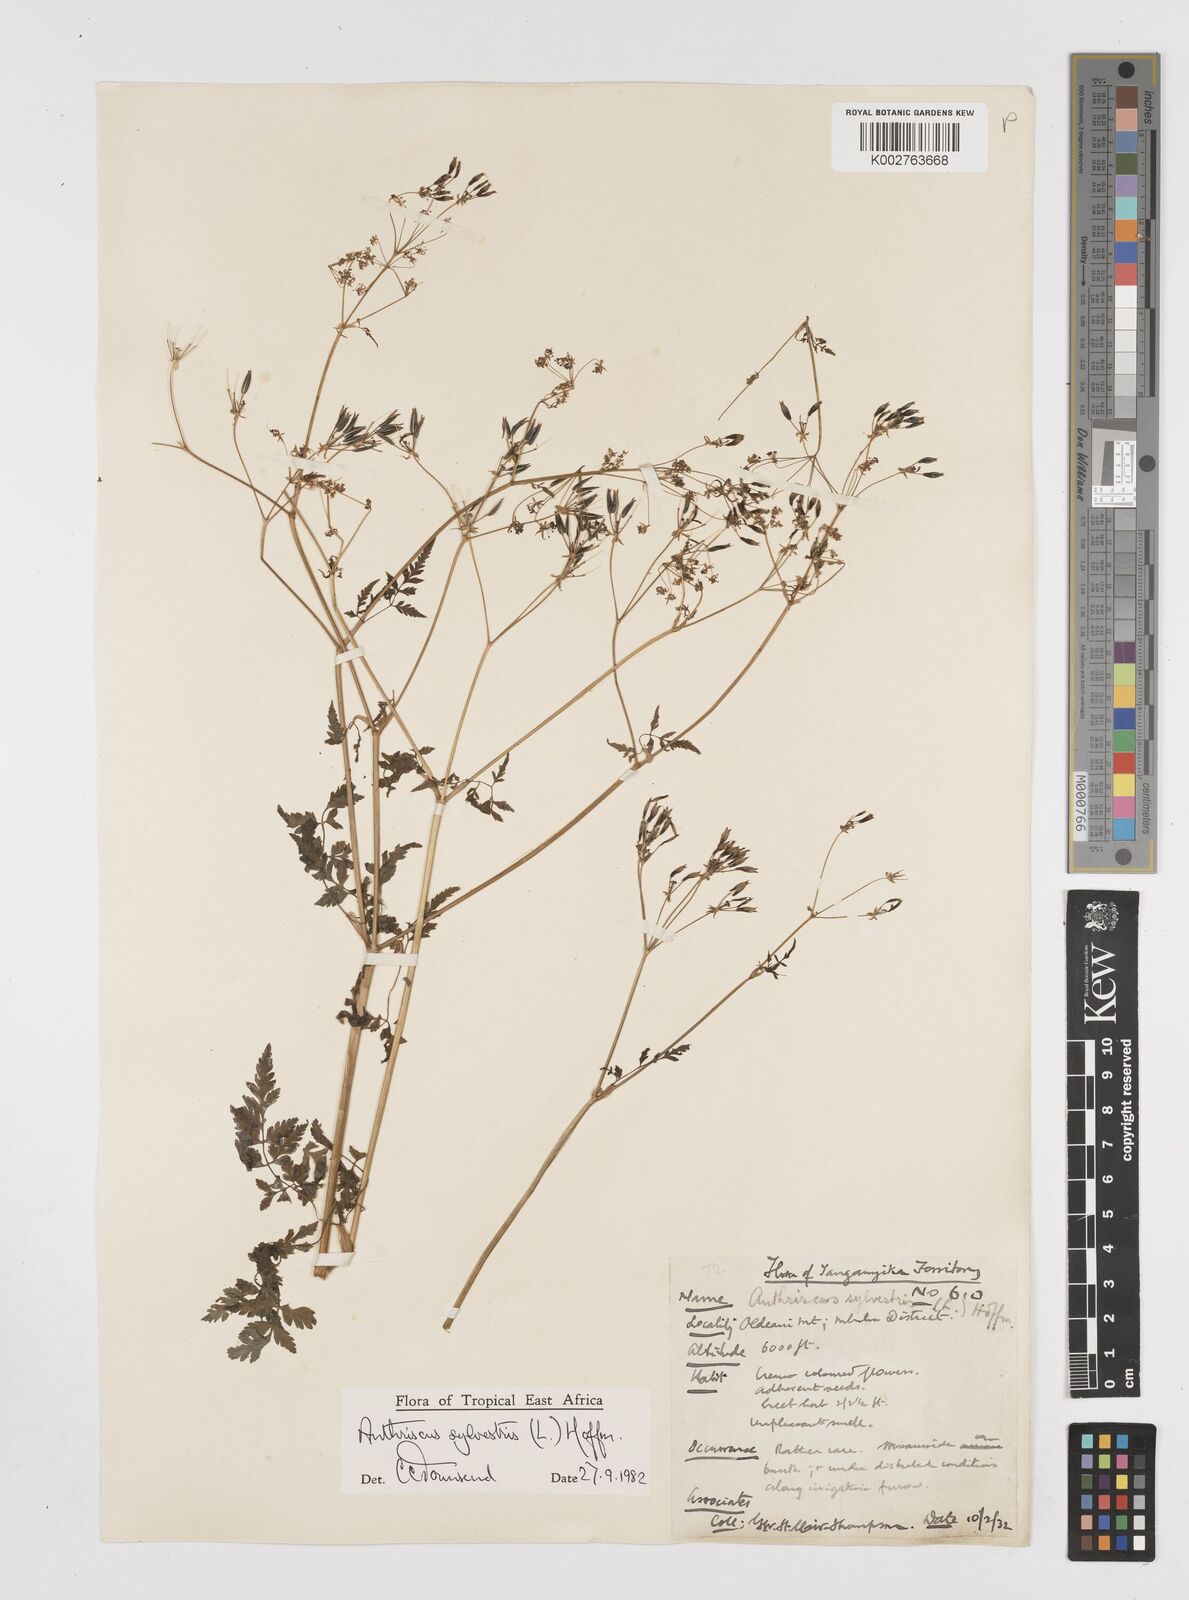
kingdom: Plantae
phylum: Tracheophyta
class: Magnoliopsida
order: Apiales
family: Apiaceae
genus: Anthriscus
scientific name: Anthriscus sylvestris
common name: Cow parsley
